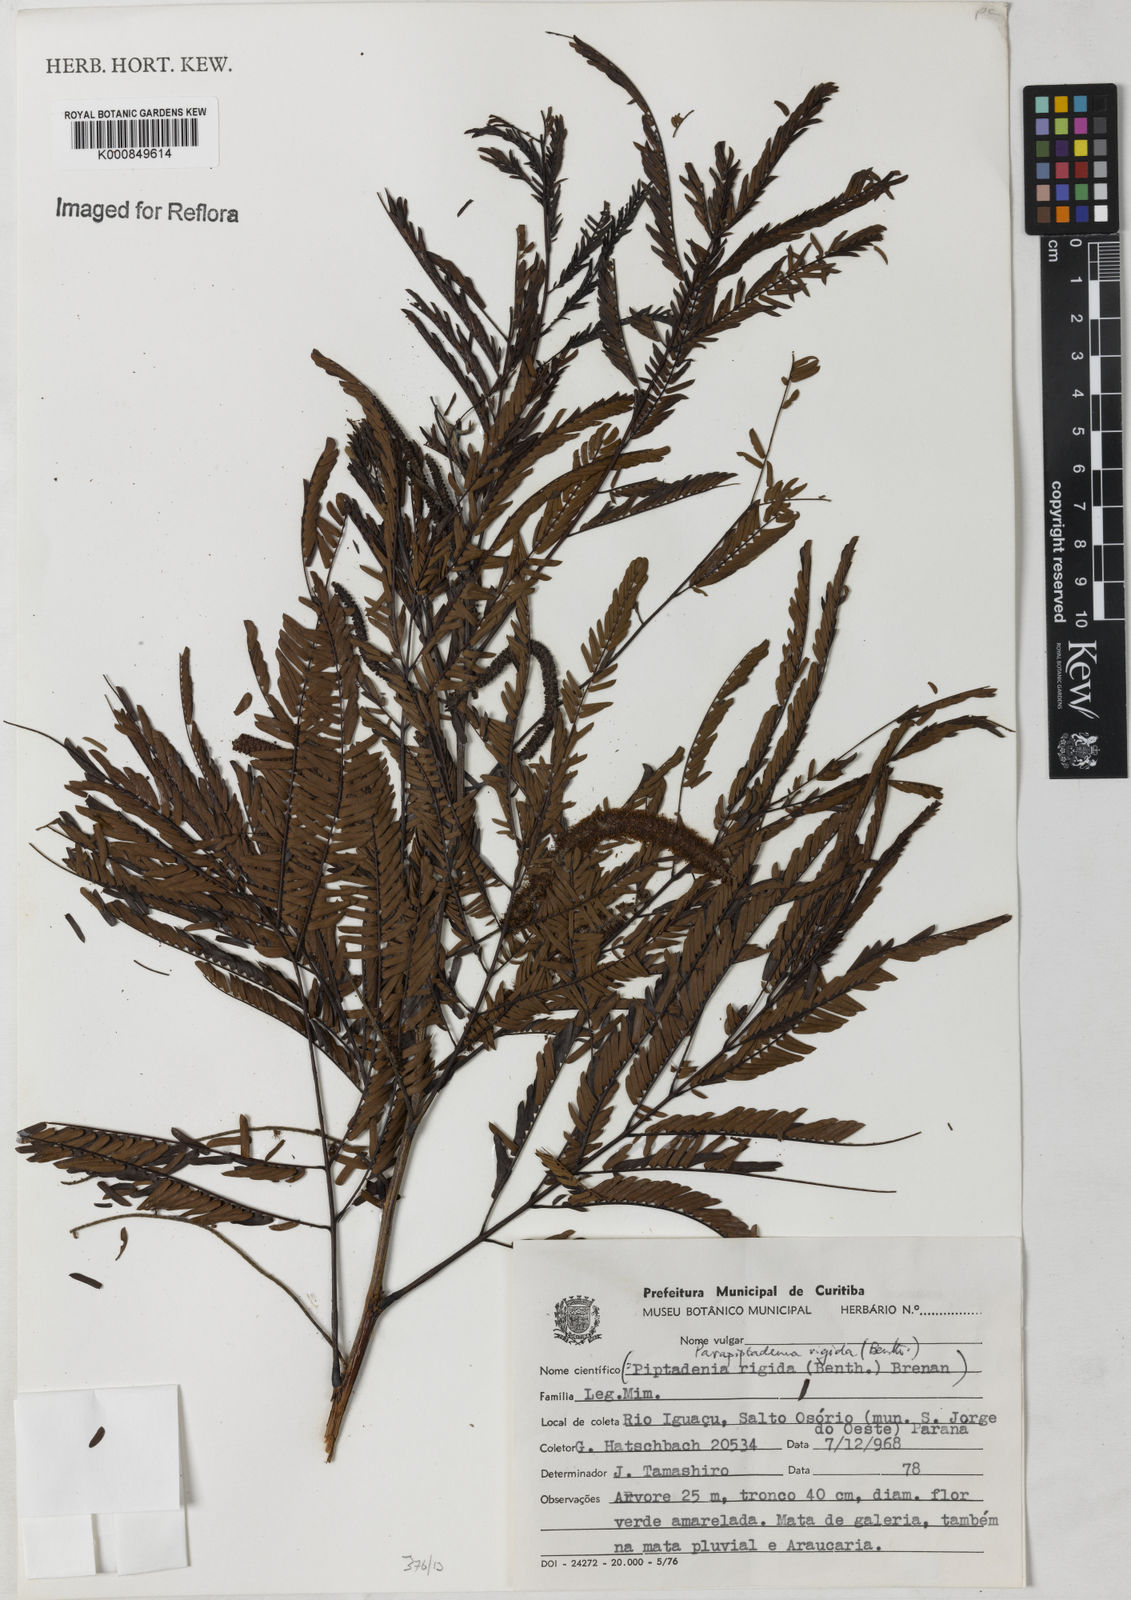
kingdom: Plantae
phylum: Tracheophyta
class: Magnoliopsida
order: Fabales
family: Fabaceae
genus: Parapiptadenia
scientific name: Parapiptadenia rigida
